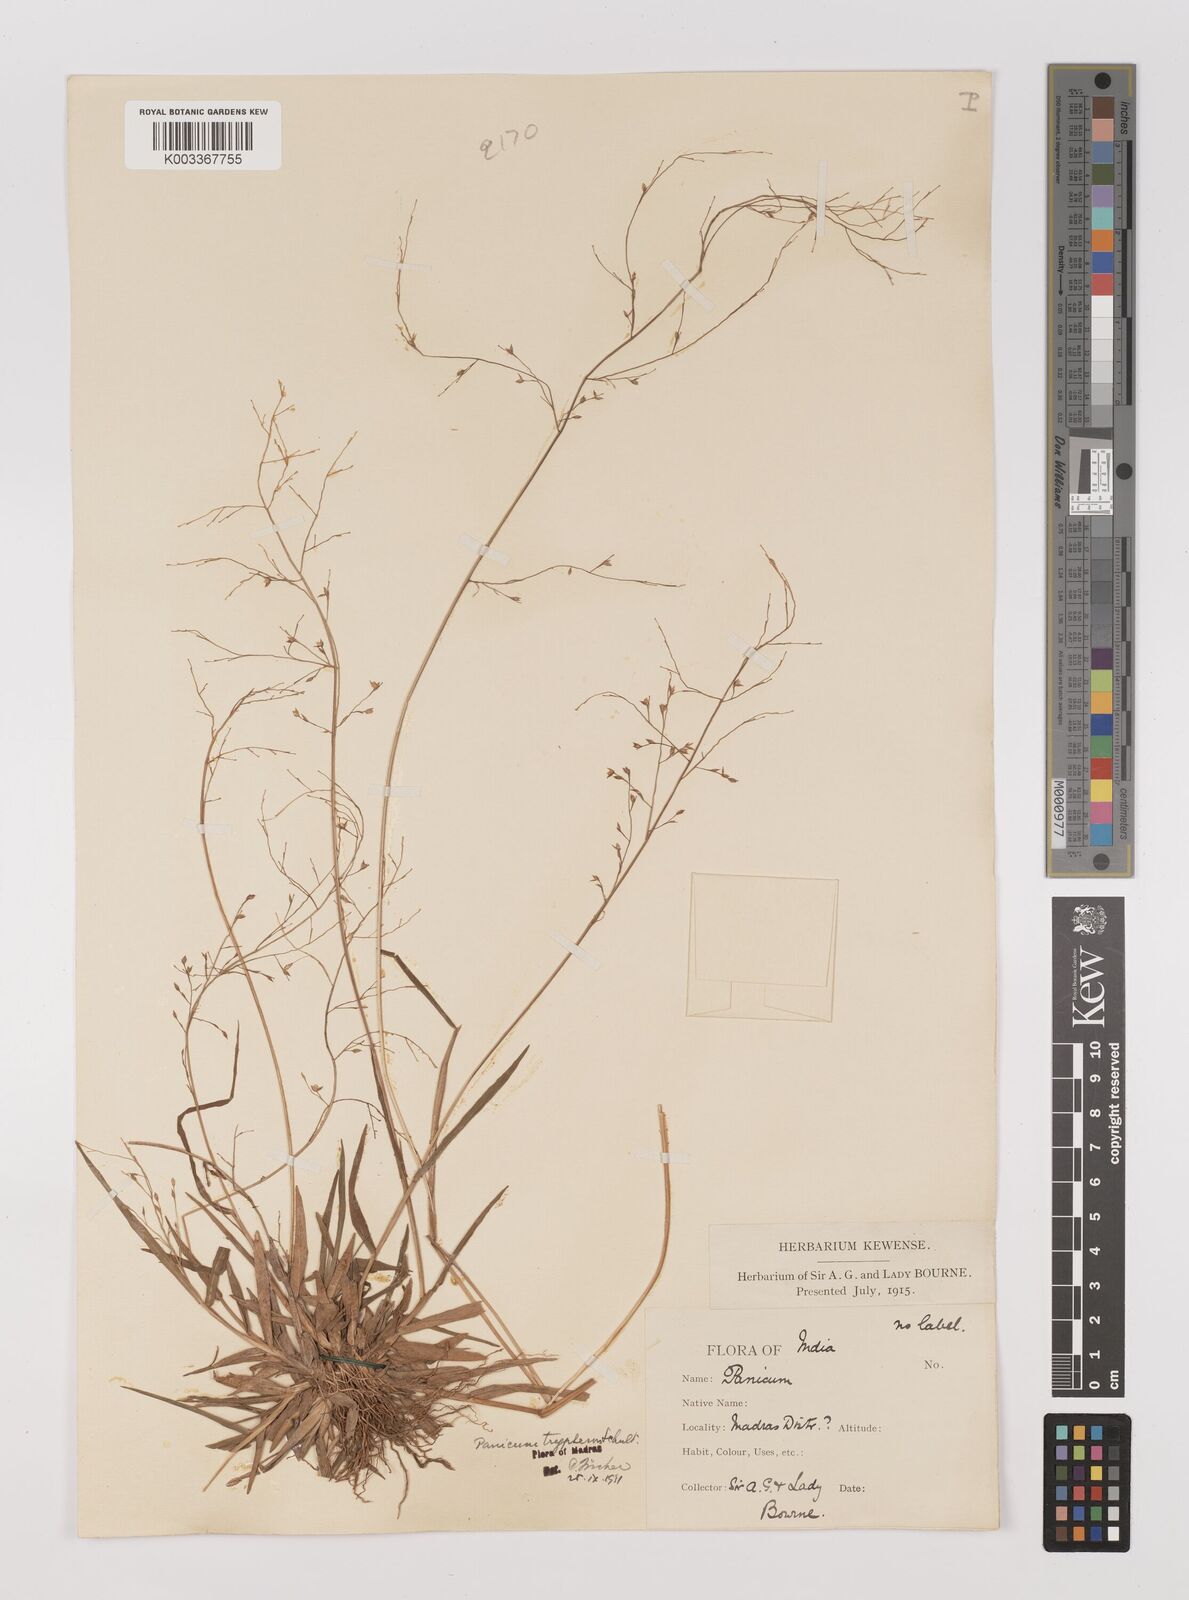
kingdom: Plantae
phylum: Tracheophyta
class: Liliopsida
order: Poales
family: Poaceae
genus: Panicum
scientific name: Panicum curviflorum
